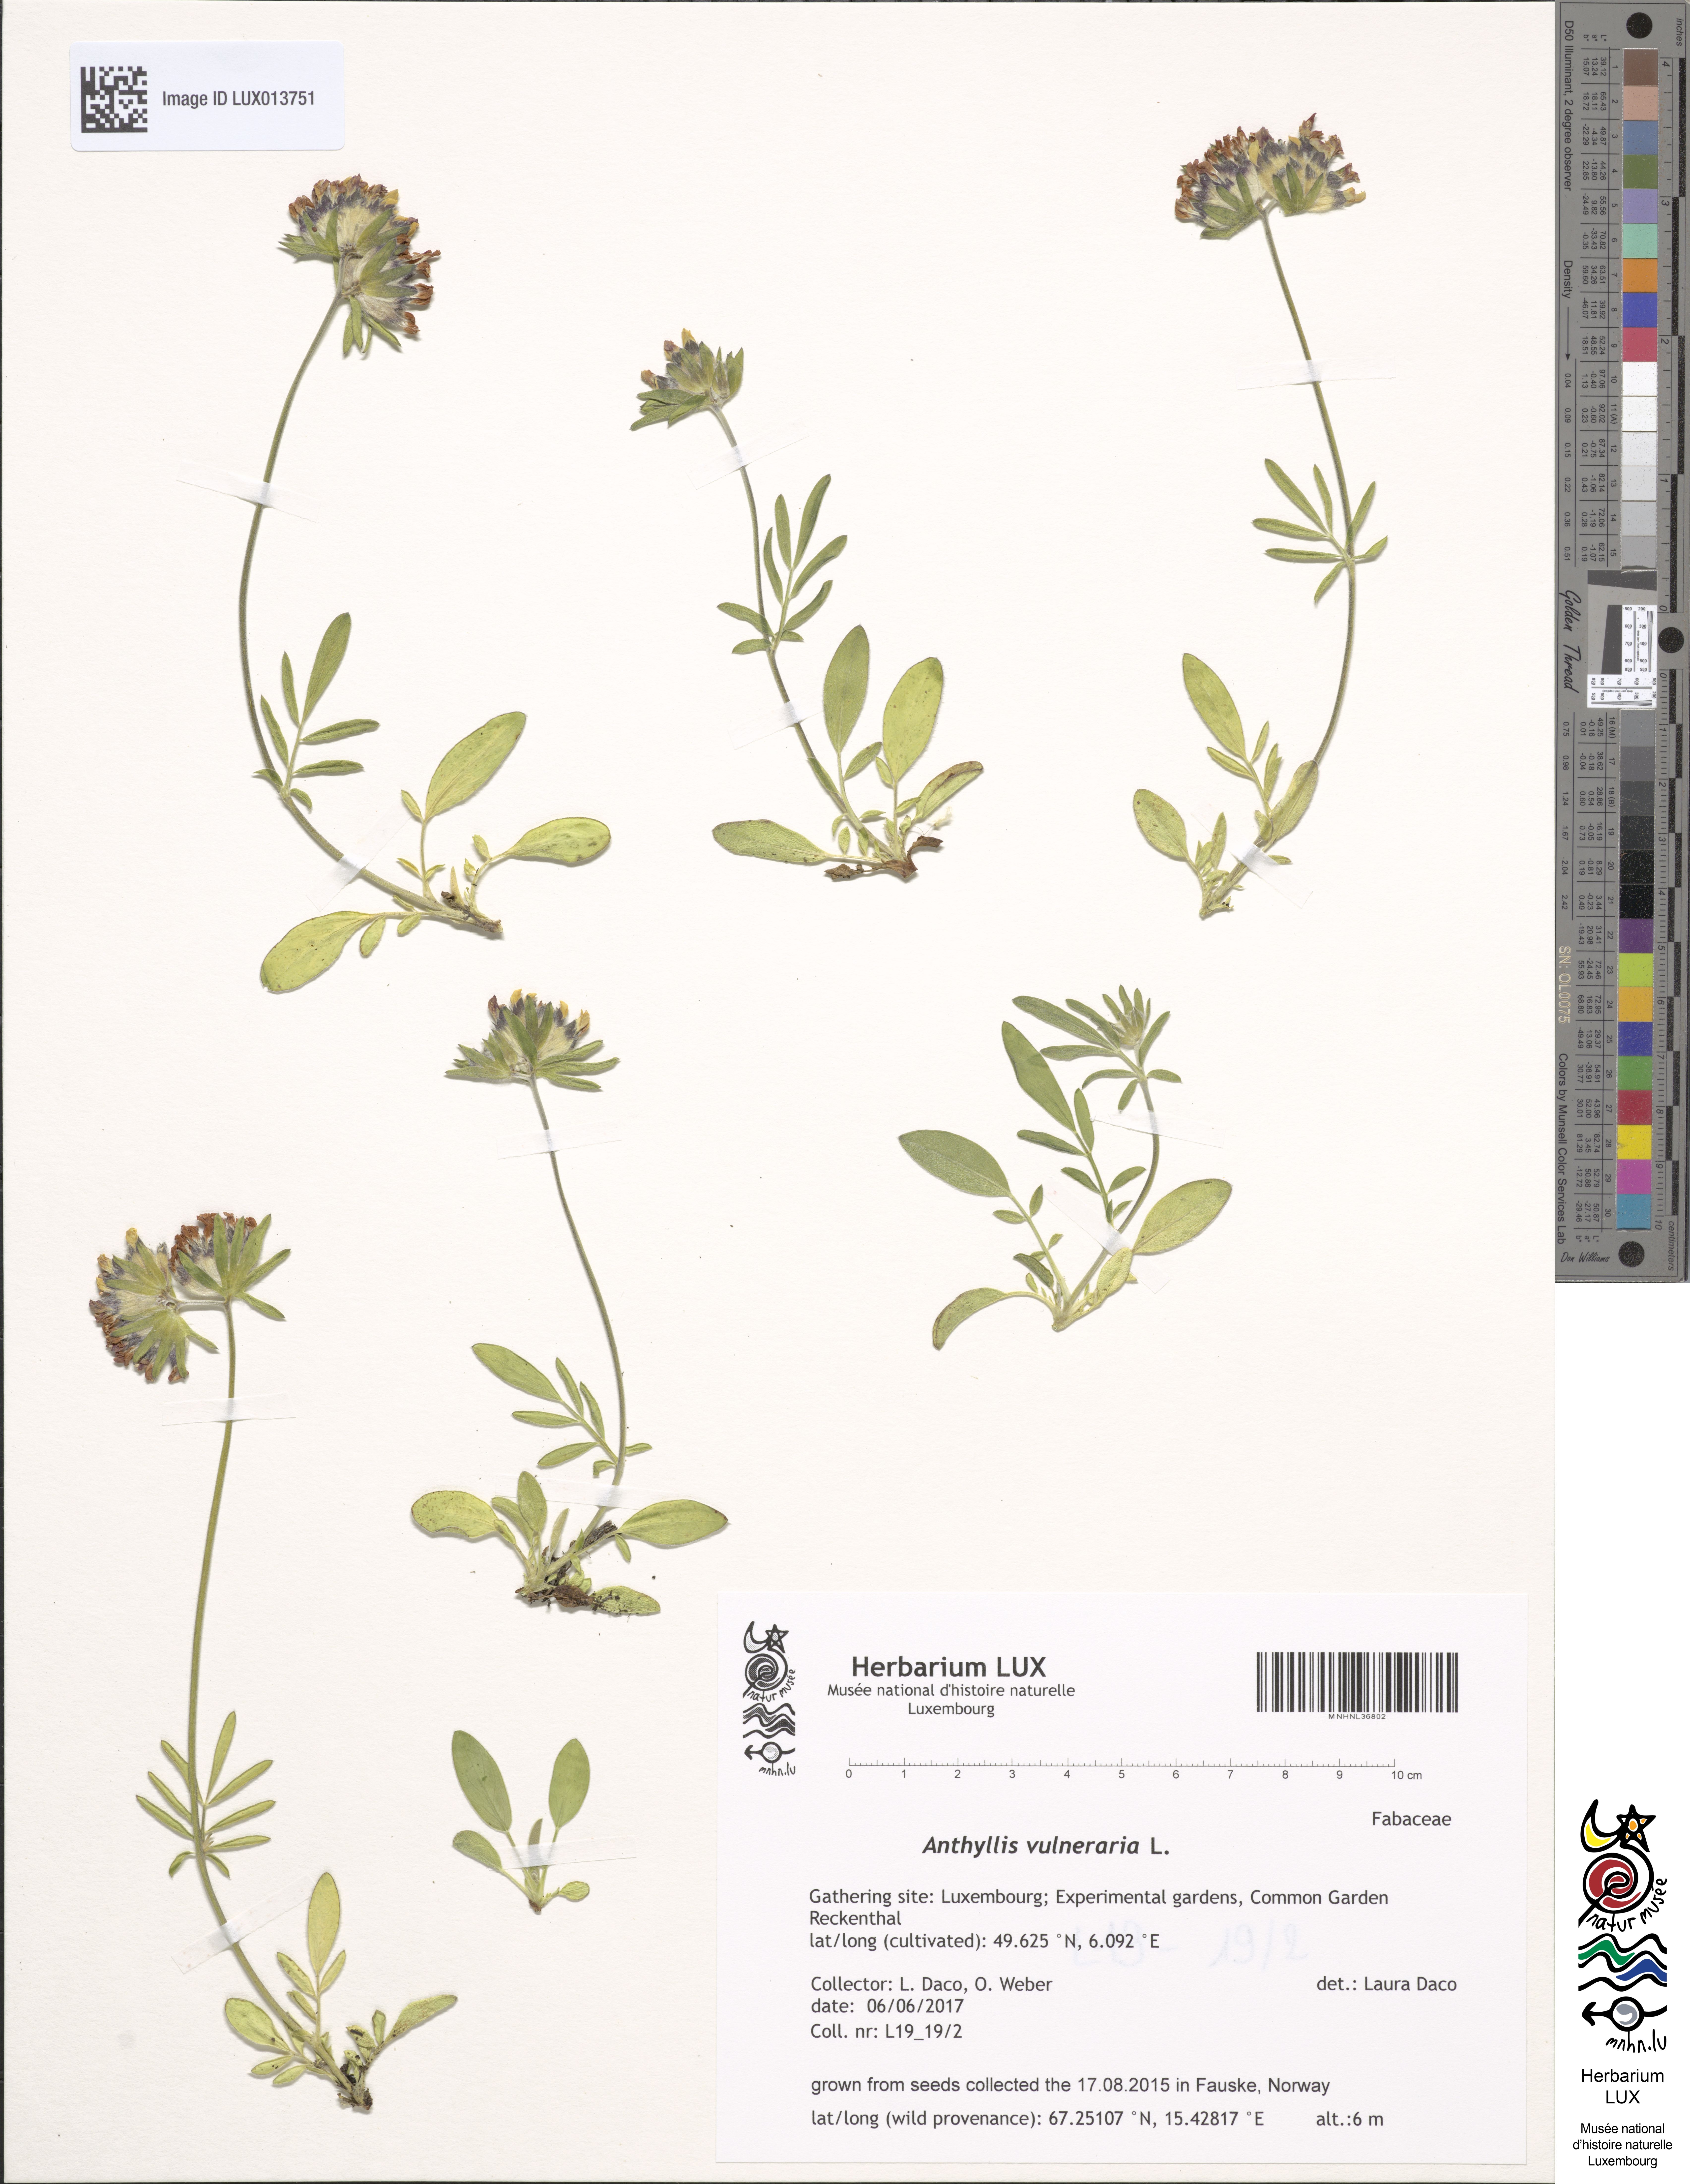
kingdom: Plantae
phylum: Tracheophyta
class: Magnoliopsida
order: Fabales
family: Fabaceae
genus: Anthyllis
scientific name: Anthyllis vulneraria
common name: Kidney vetch
